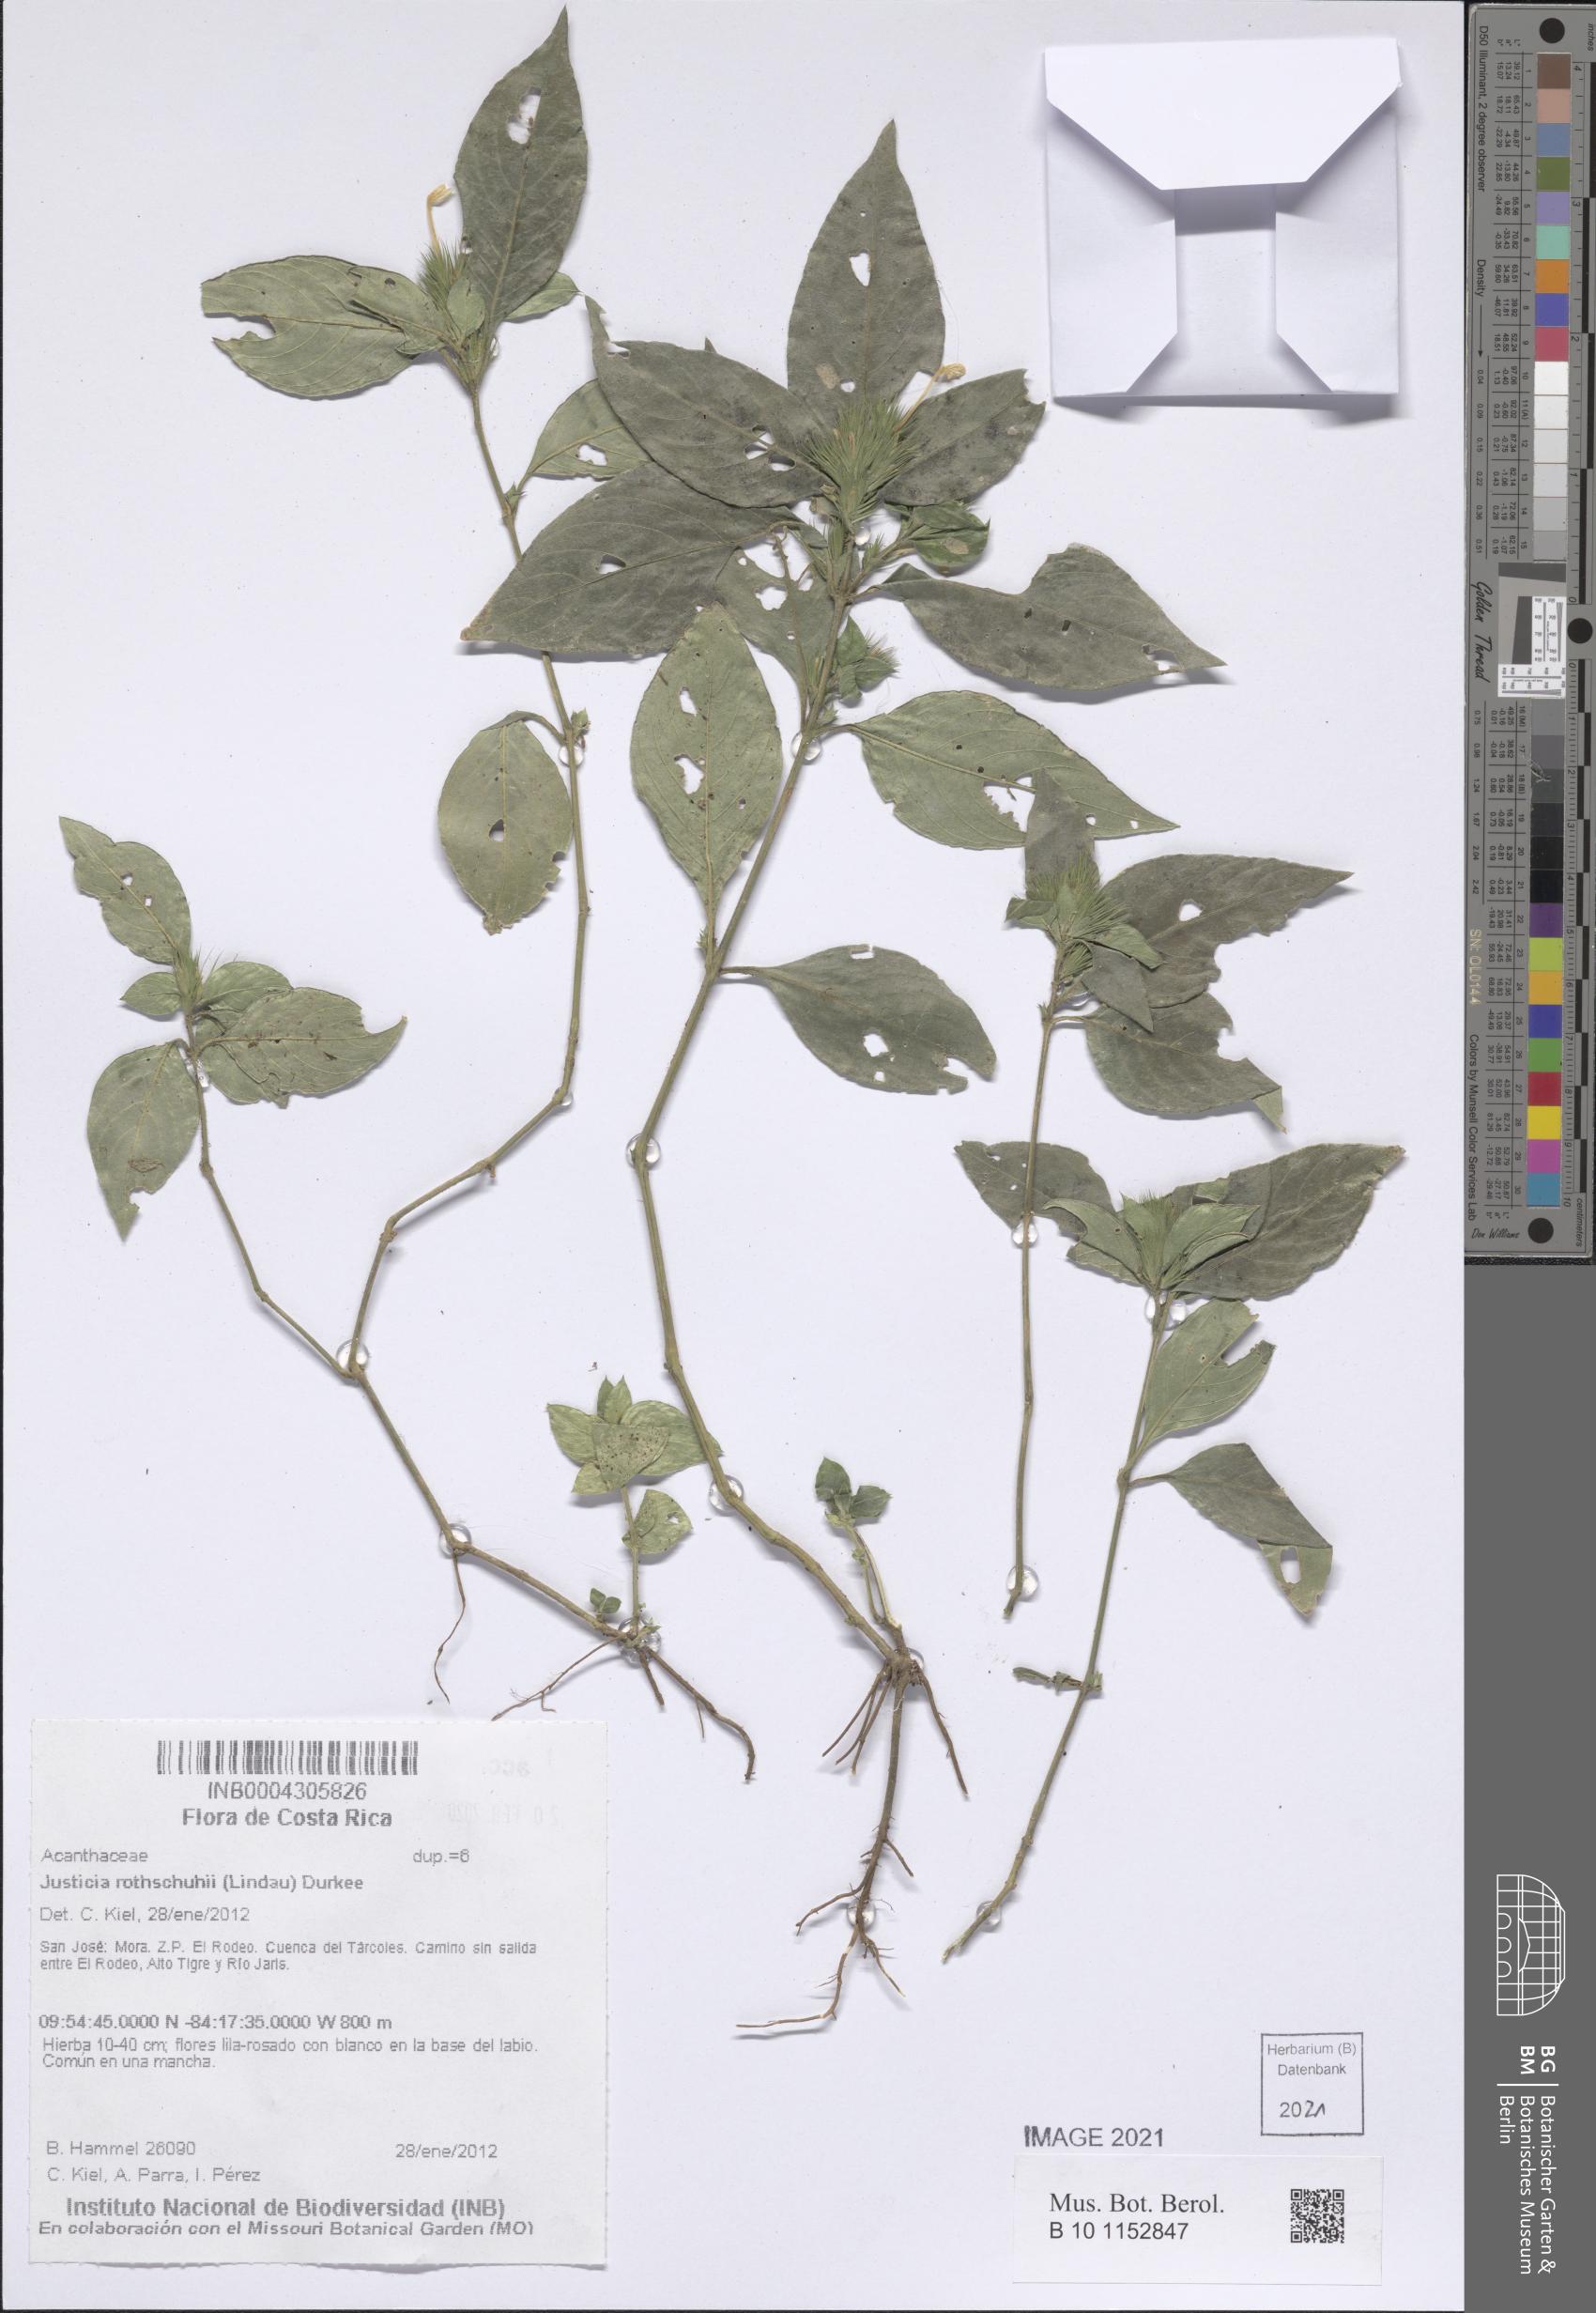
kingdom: Plantae
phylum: Tracheophyta
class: Magnoliopsida
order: Lamiales
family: Acanthaceae
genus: Justicia
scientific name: Justicia Tyloglossa adenostachya
